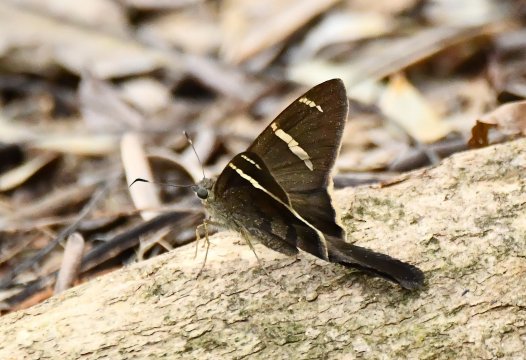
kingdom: Animalia
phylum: Arthropoda
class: Insecta
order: Lepidoptera
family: Hesperiidae
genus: Urbanus
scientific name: Urbanus tanna
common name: Tanna Longtail
